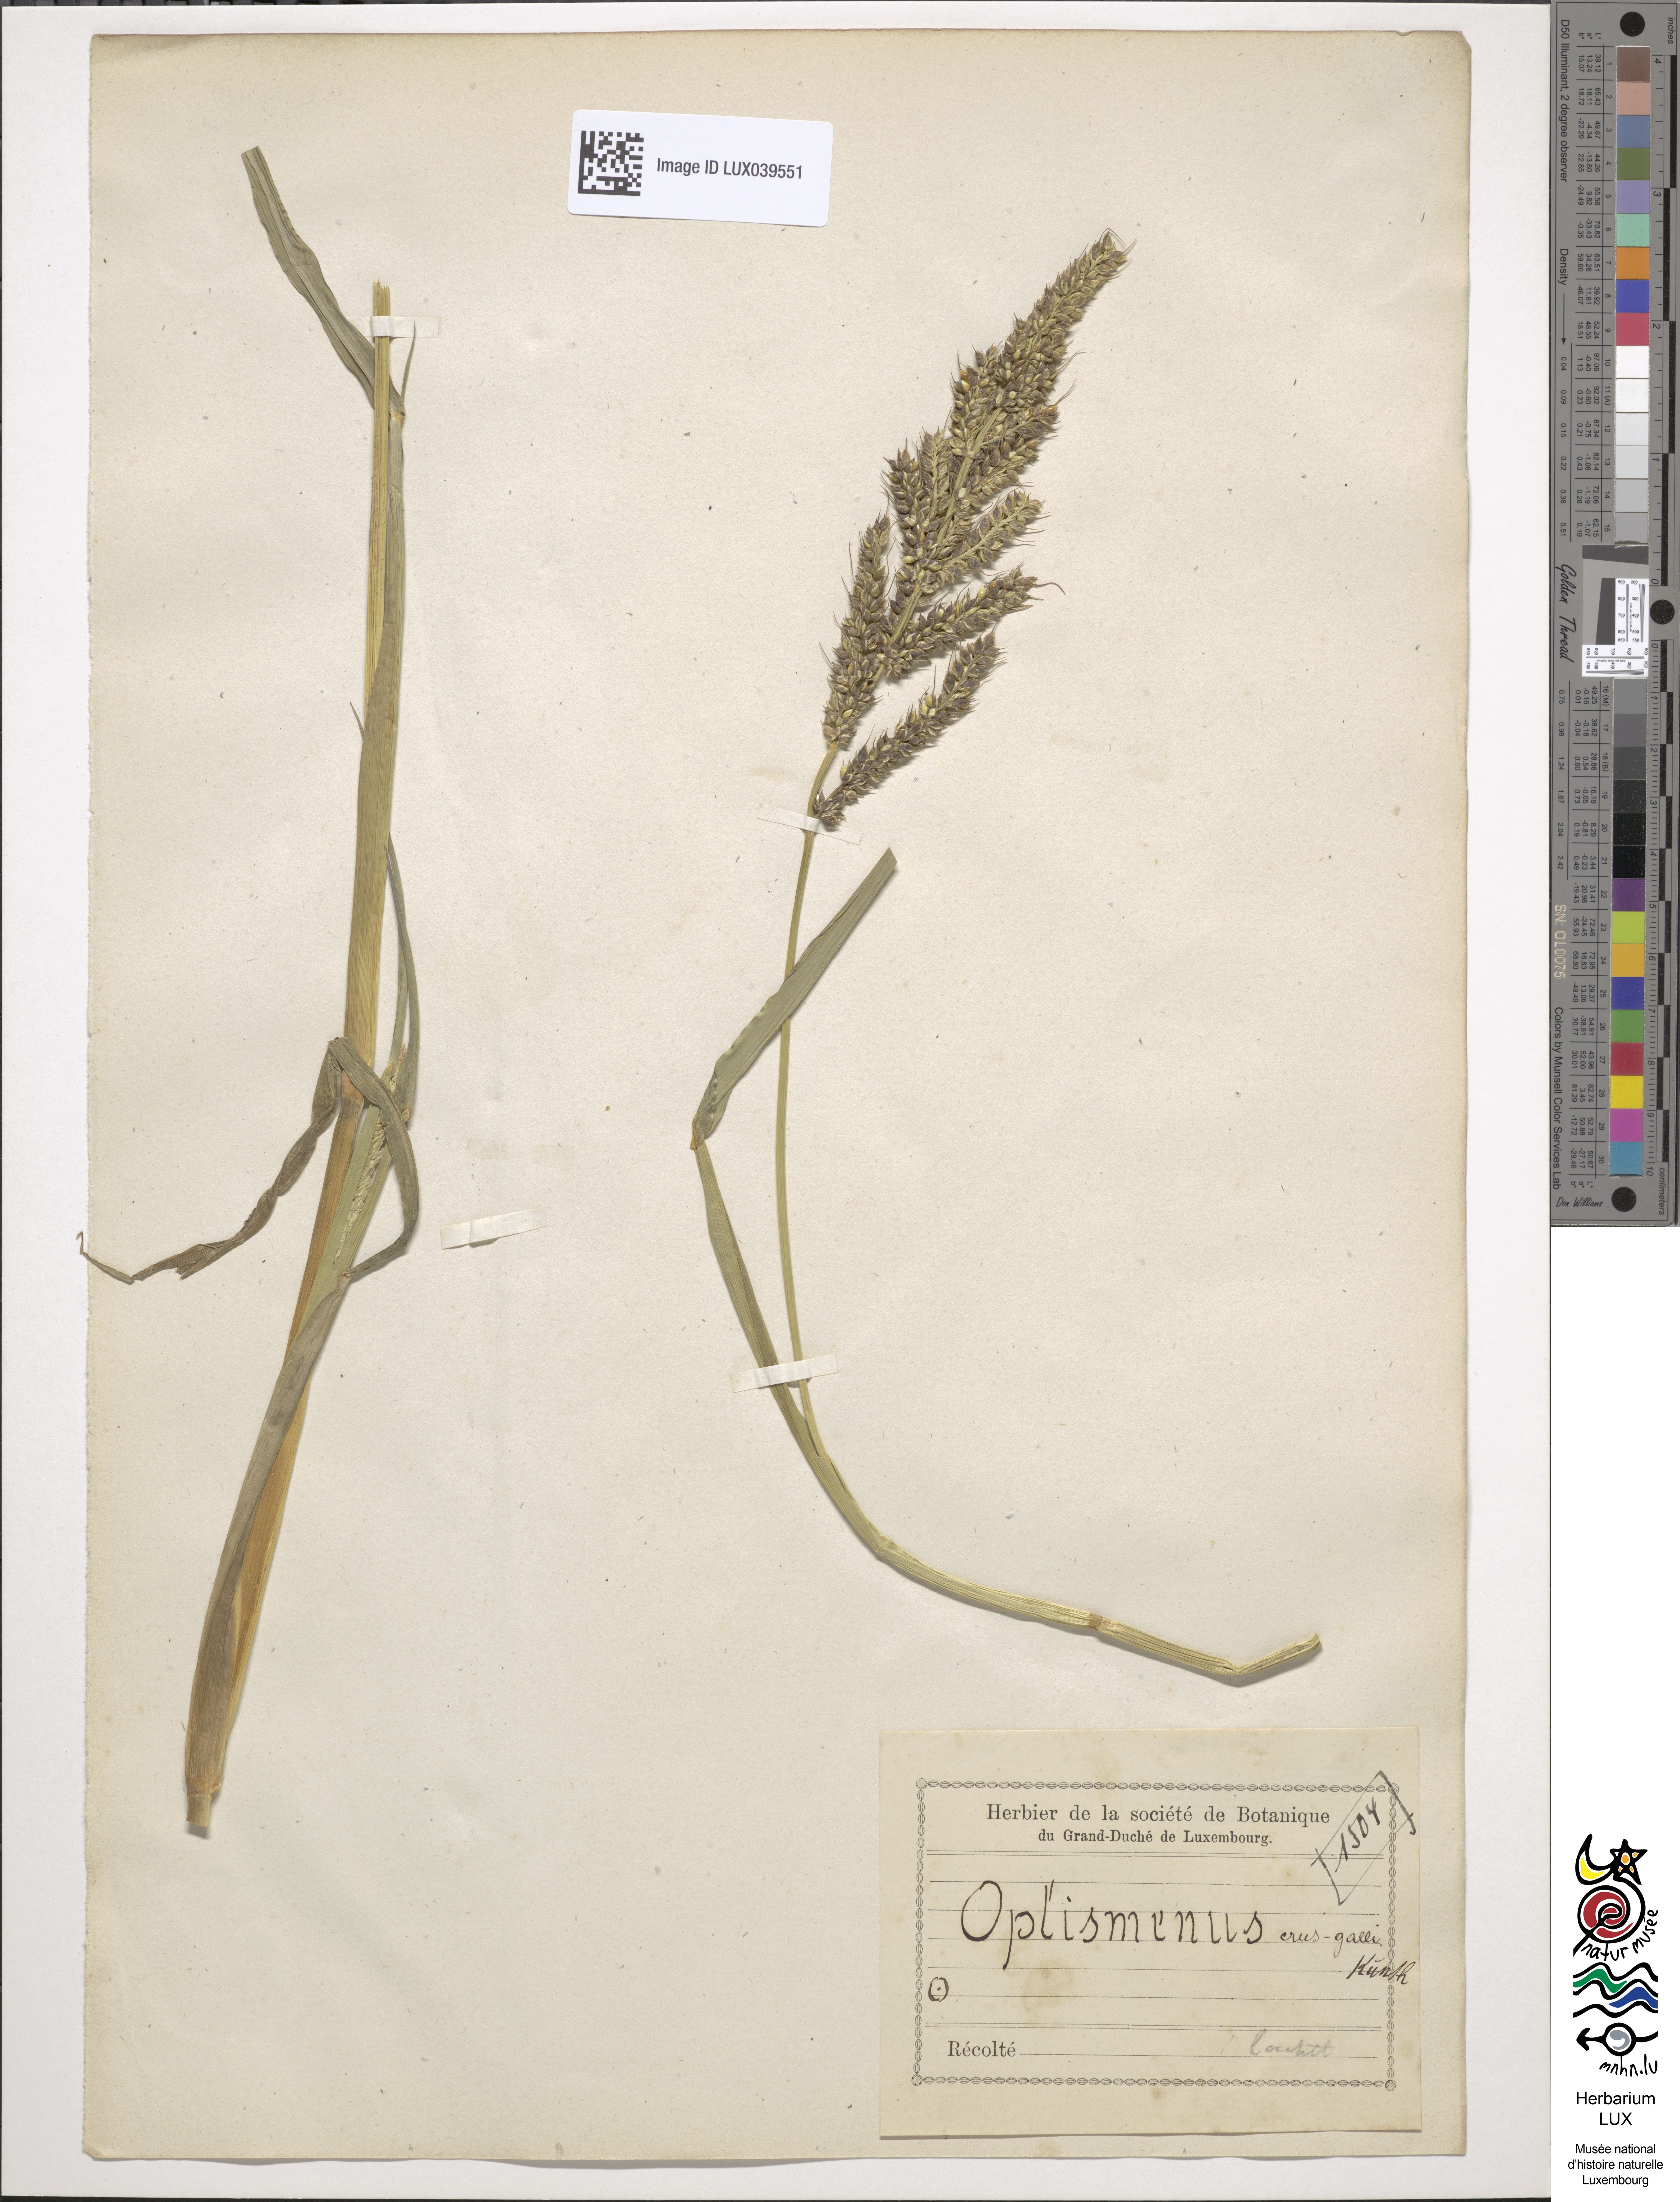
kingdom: Plantae
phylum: Tracheophyta
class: Liliopsida
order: Poales
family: Poaceae
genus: Echinochloa
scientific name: Echinochloa crus-galli
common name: Cockspur
